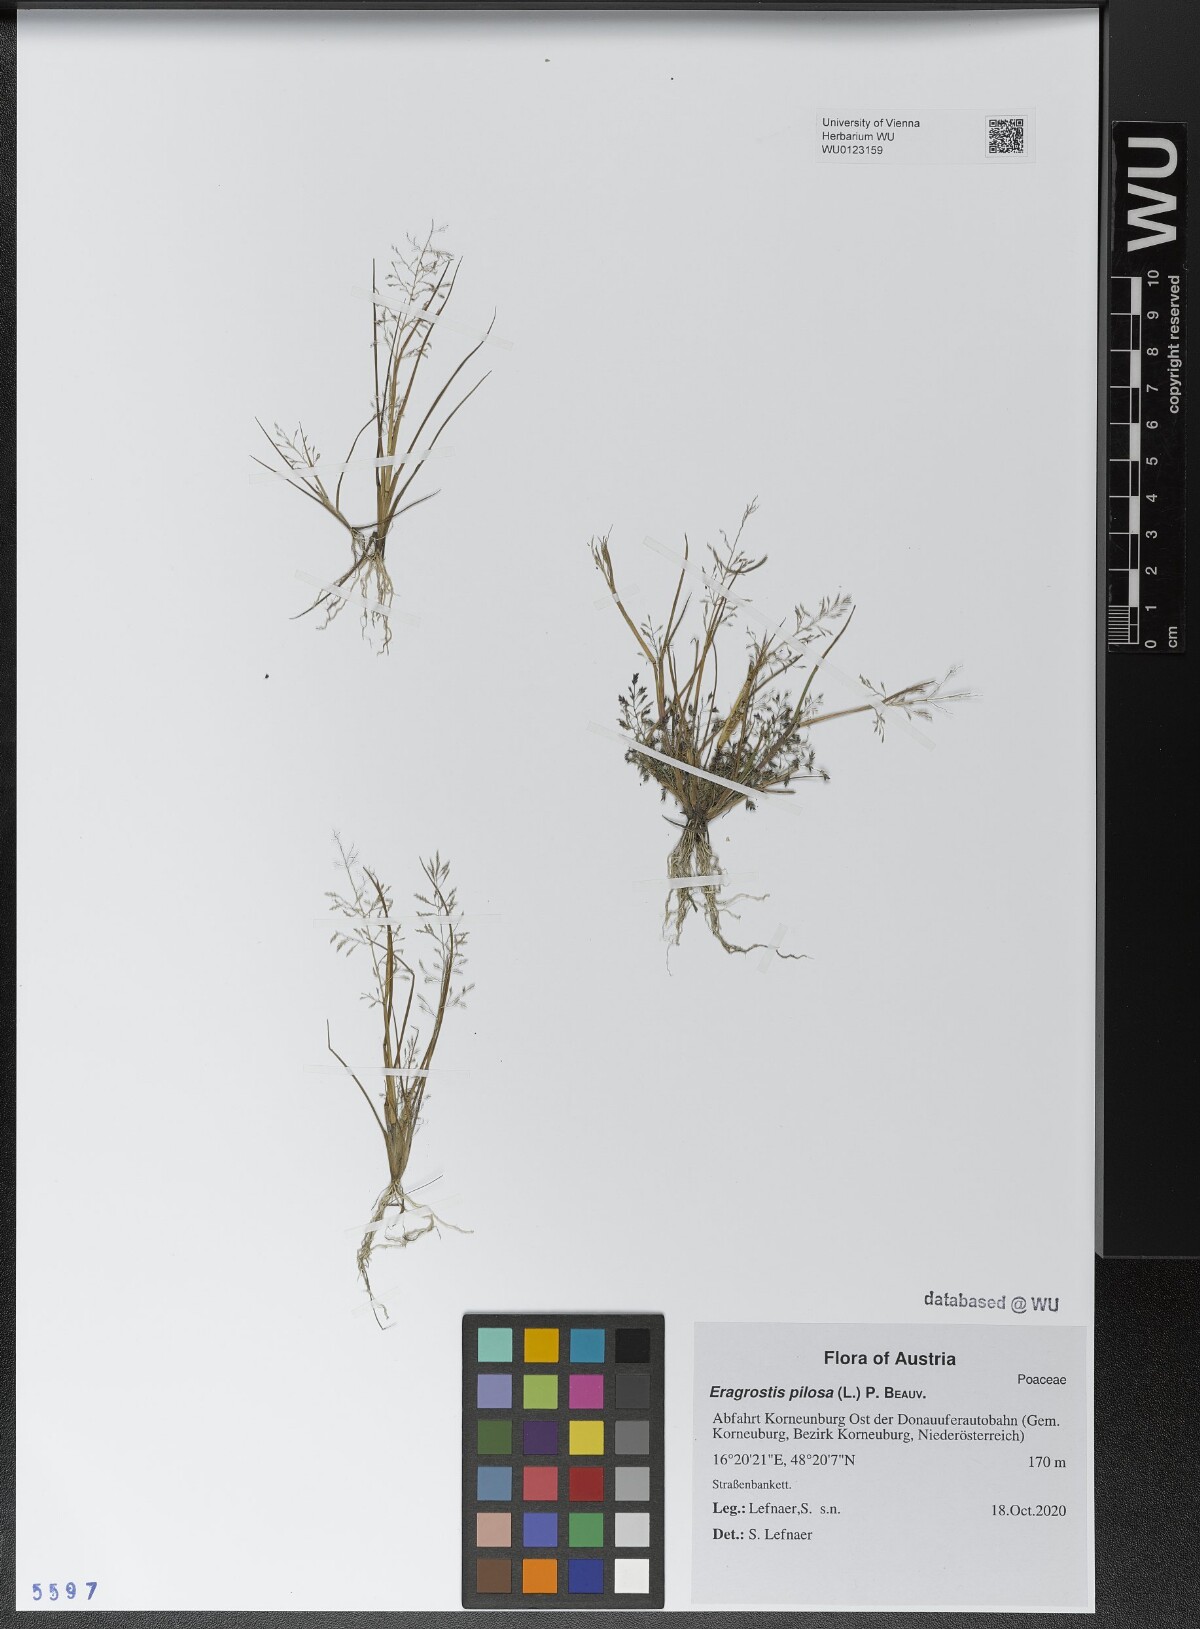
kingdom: Plantae
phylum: Tracheophyta
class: Liliopsida
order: Poales
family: Poaceae
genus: Eragrostis
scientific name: Eragrostis pilosa
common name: Indian lovegrass
